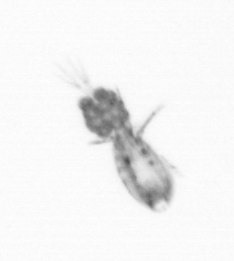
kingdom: Animalia
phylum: Arthropoda
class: Copepoda
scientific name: Copepoda
